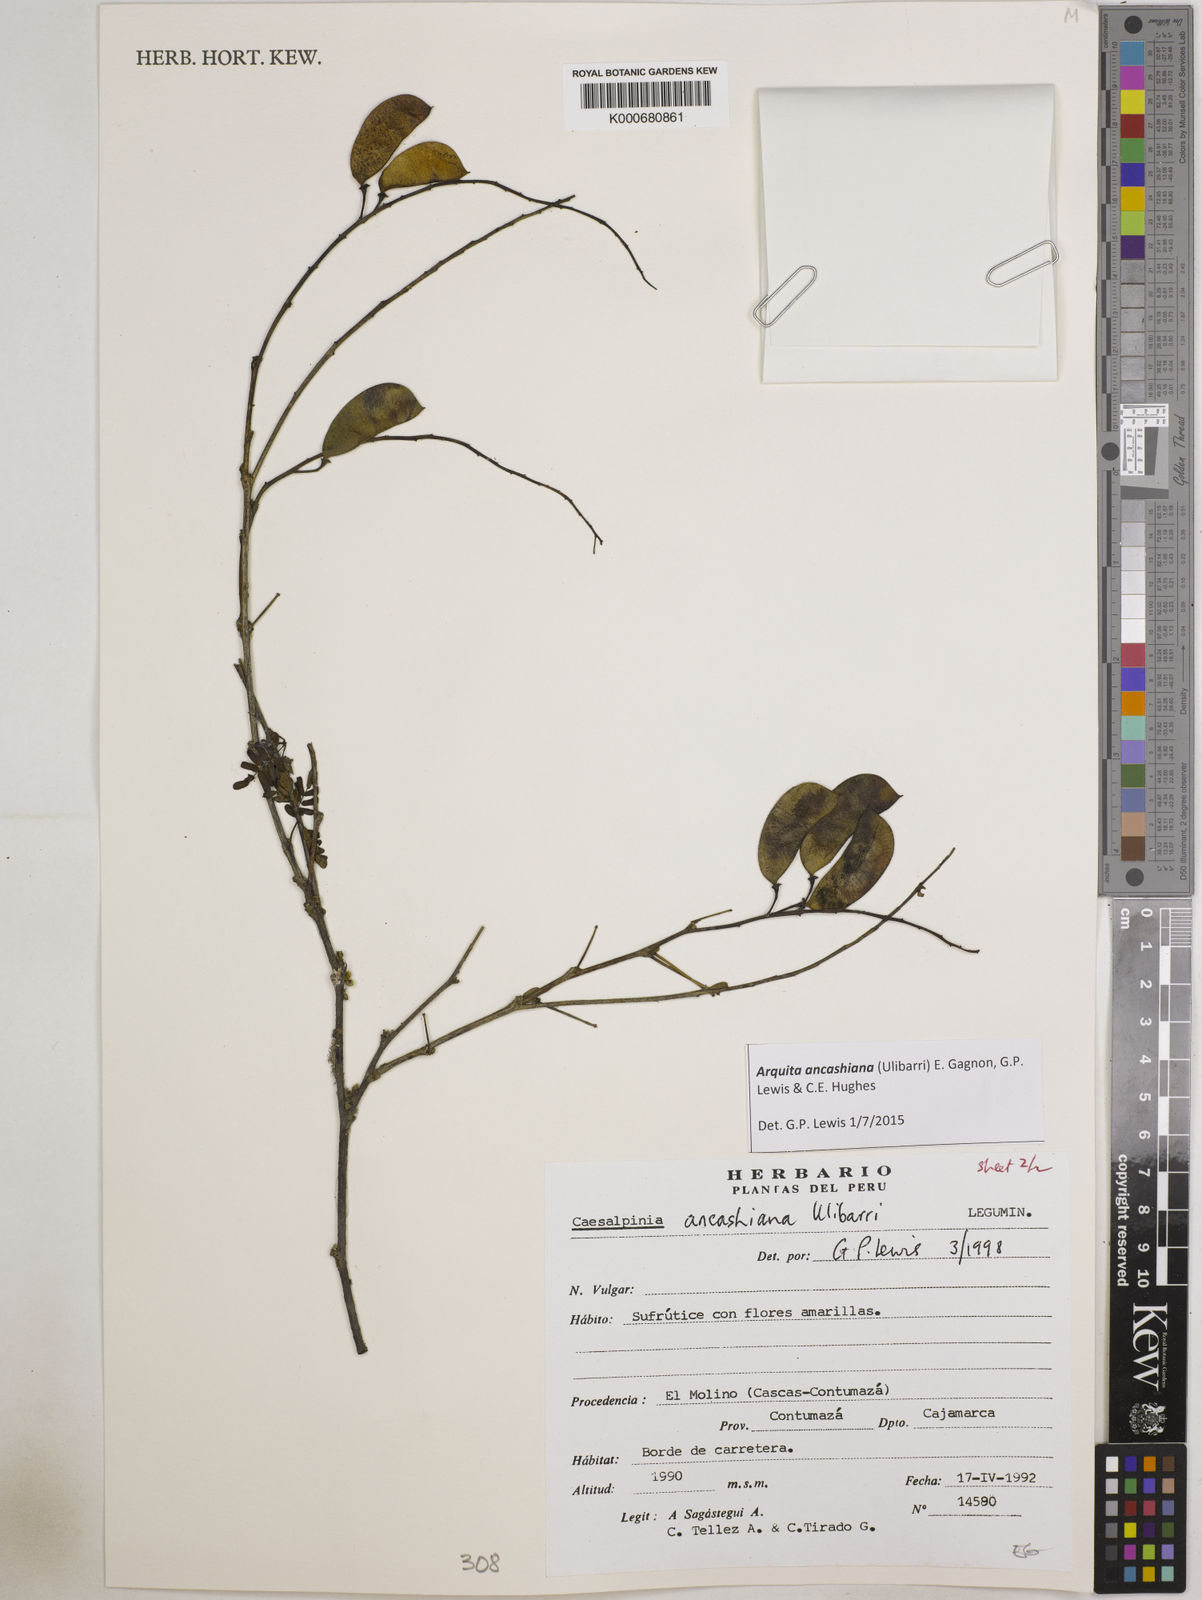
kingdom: Plantae
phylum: Tracheophyta
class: Magnoliopsida
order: Fabales
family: Fabaceae
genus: Arquita
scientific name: Arquita ancashiana
